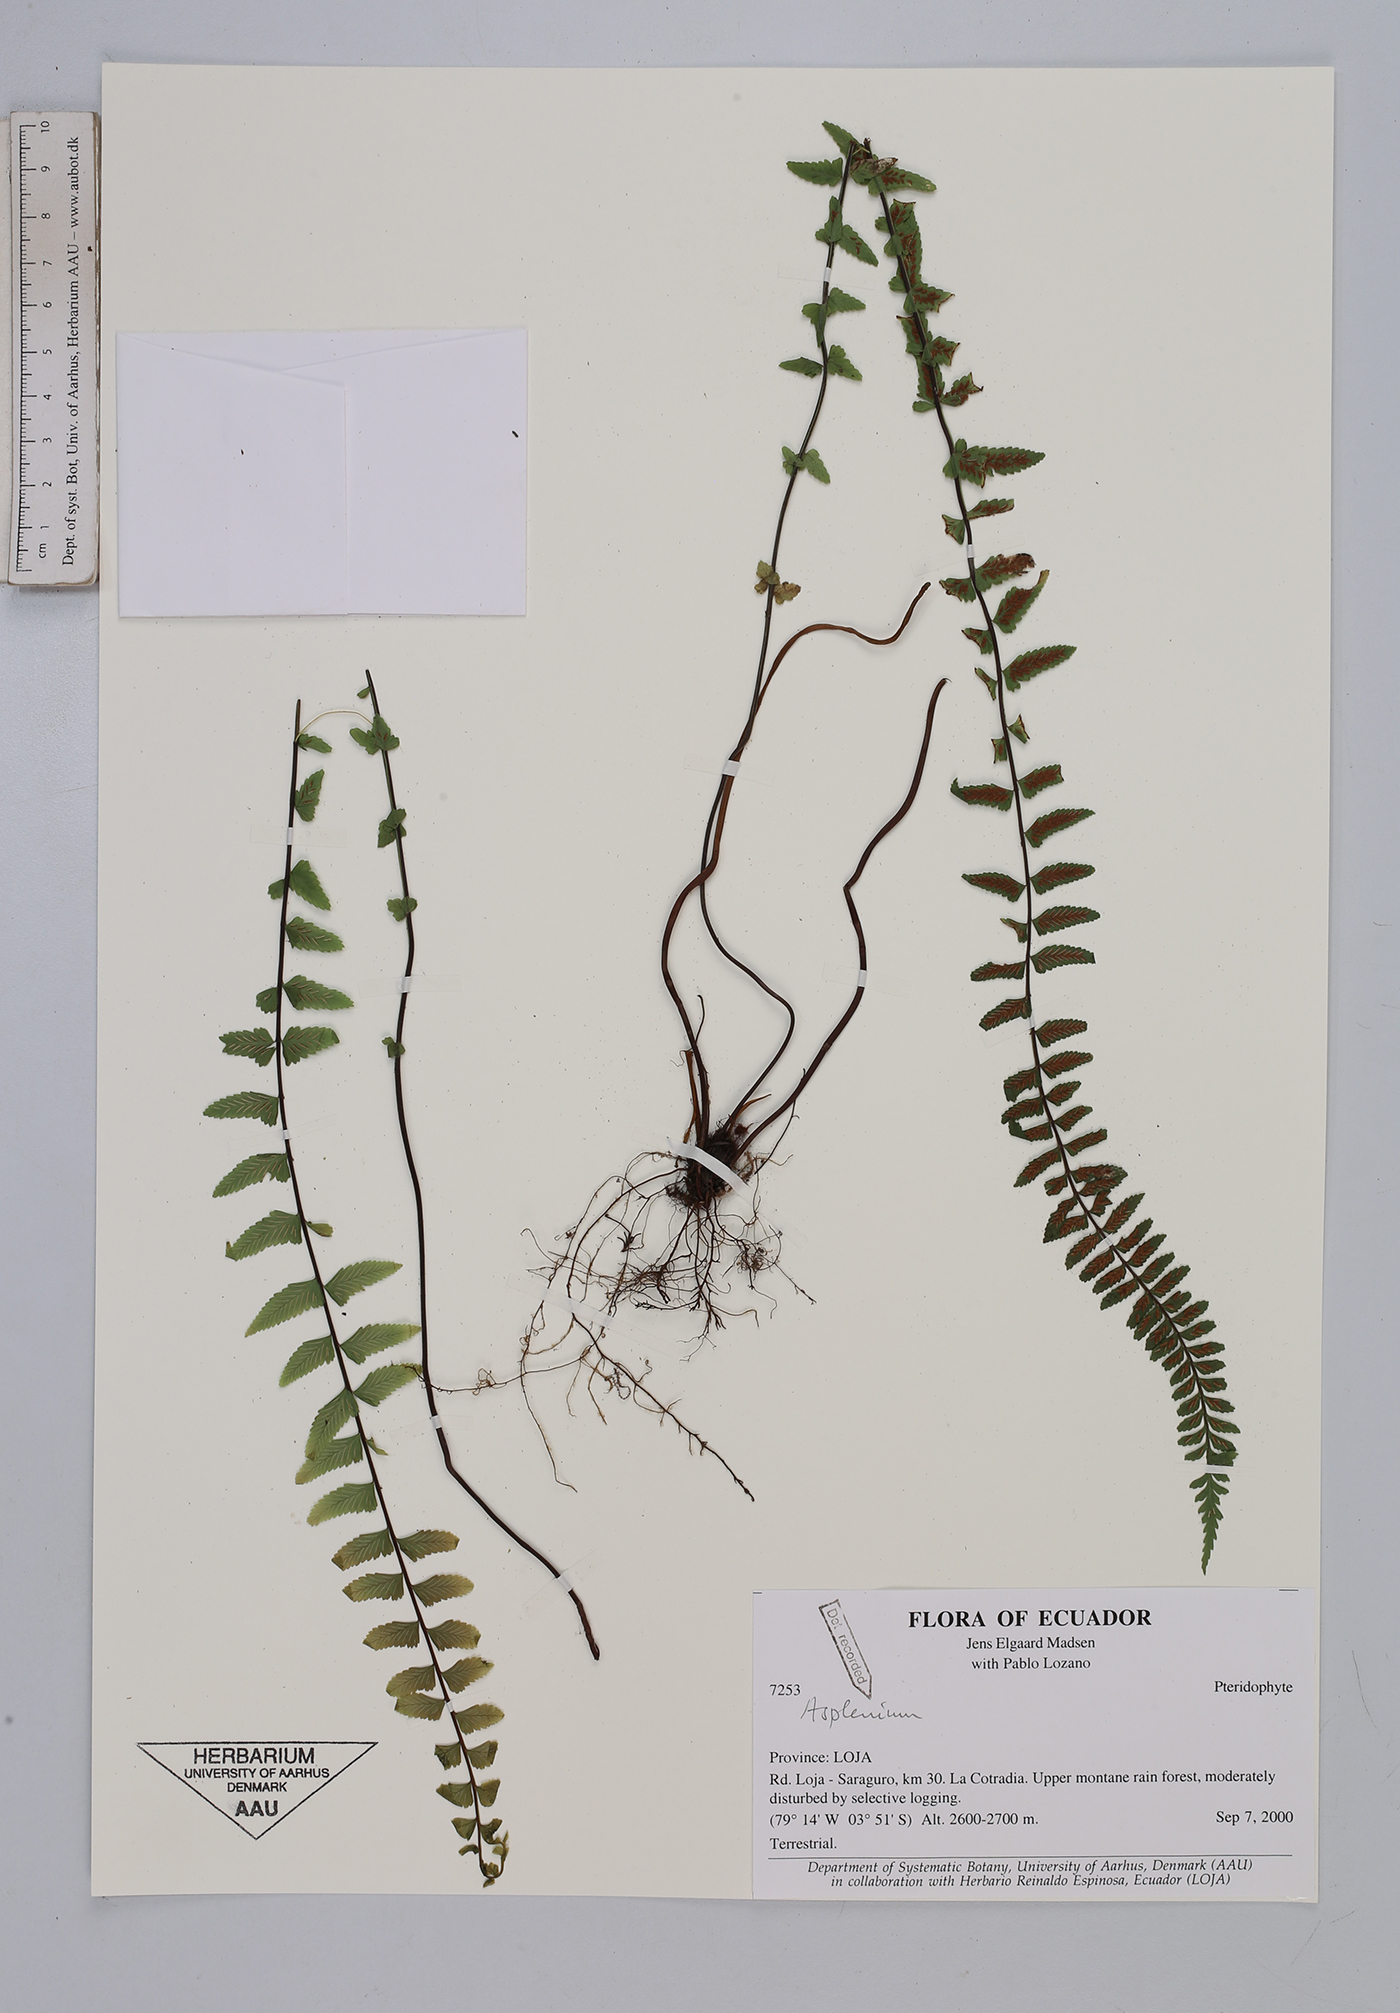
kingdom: Plantae
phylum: Tracheophyta
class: Polypodiopsida
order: Polypodiales
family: Aspleniaceae
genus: Asplenium
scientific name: Asplenium
